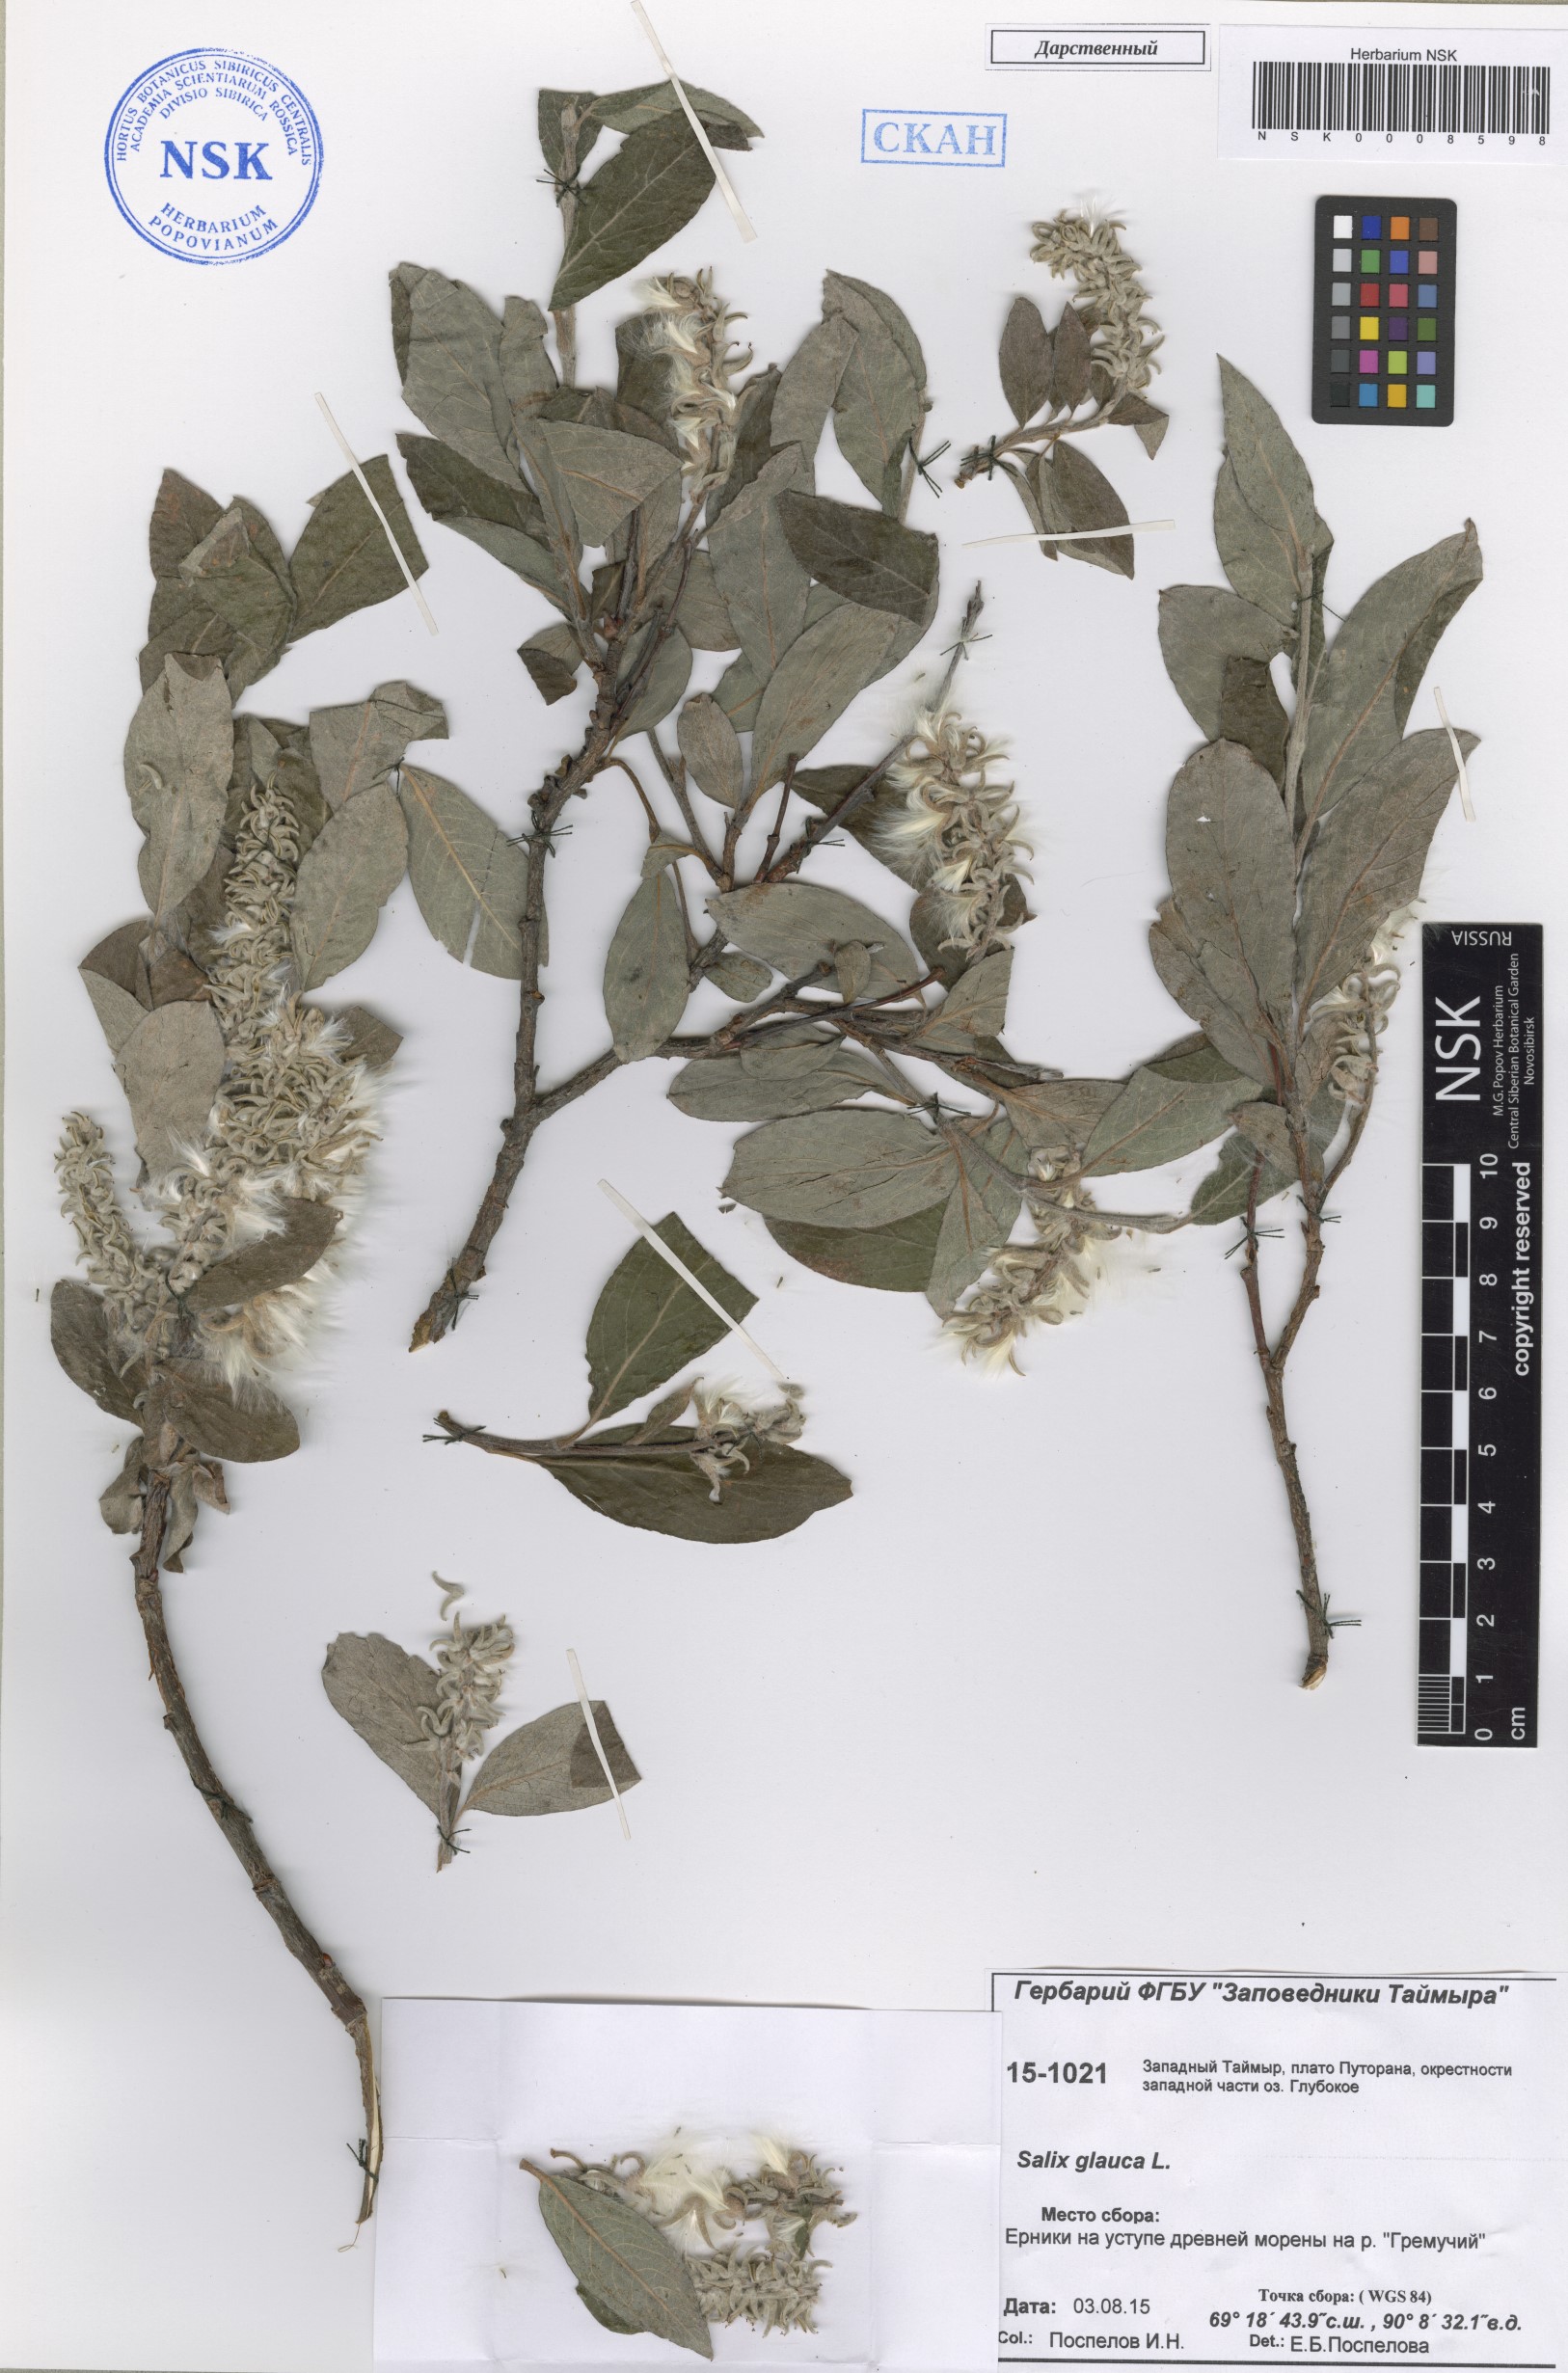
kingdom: Plantae
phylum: Tracheophyta
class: Magnoliopsida
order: Malpighiales
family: Salicaceae
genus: Salix
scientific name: Salix glauca
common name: Glaucous willow
